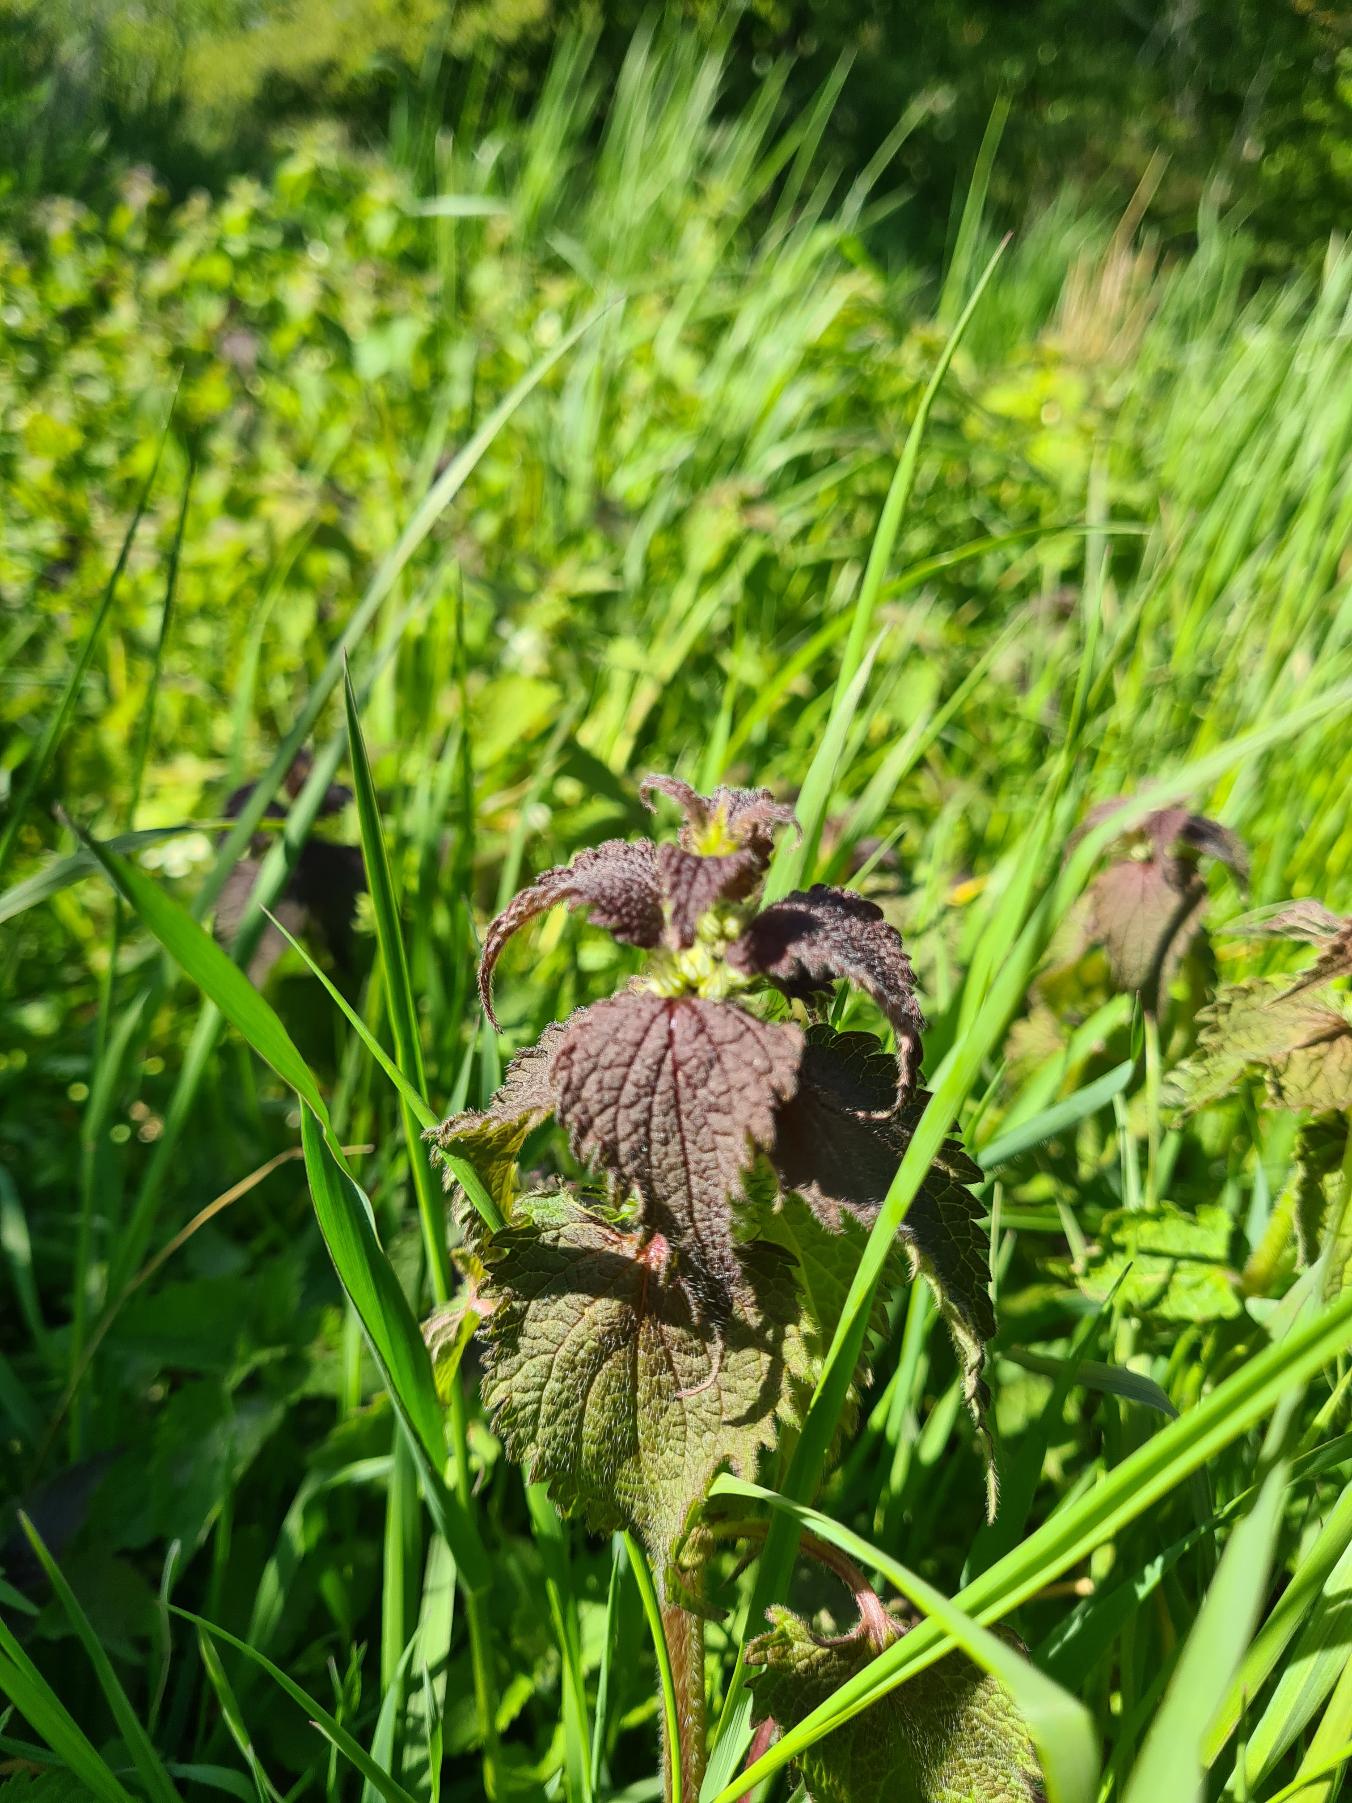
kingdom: Plantae
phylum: Tracheophyta
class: Magnoliopsida
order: Lamiales
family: Lamiaceae
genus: Lamium
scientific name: Lamium album
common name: Døvnælde
